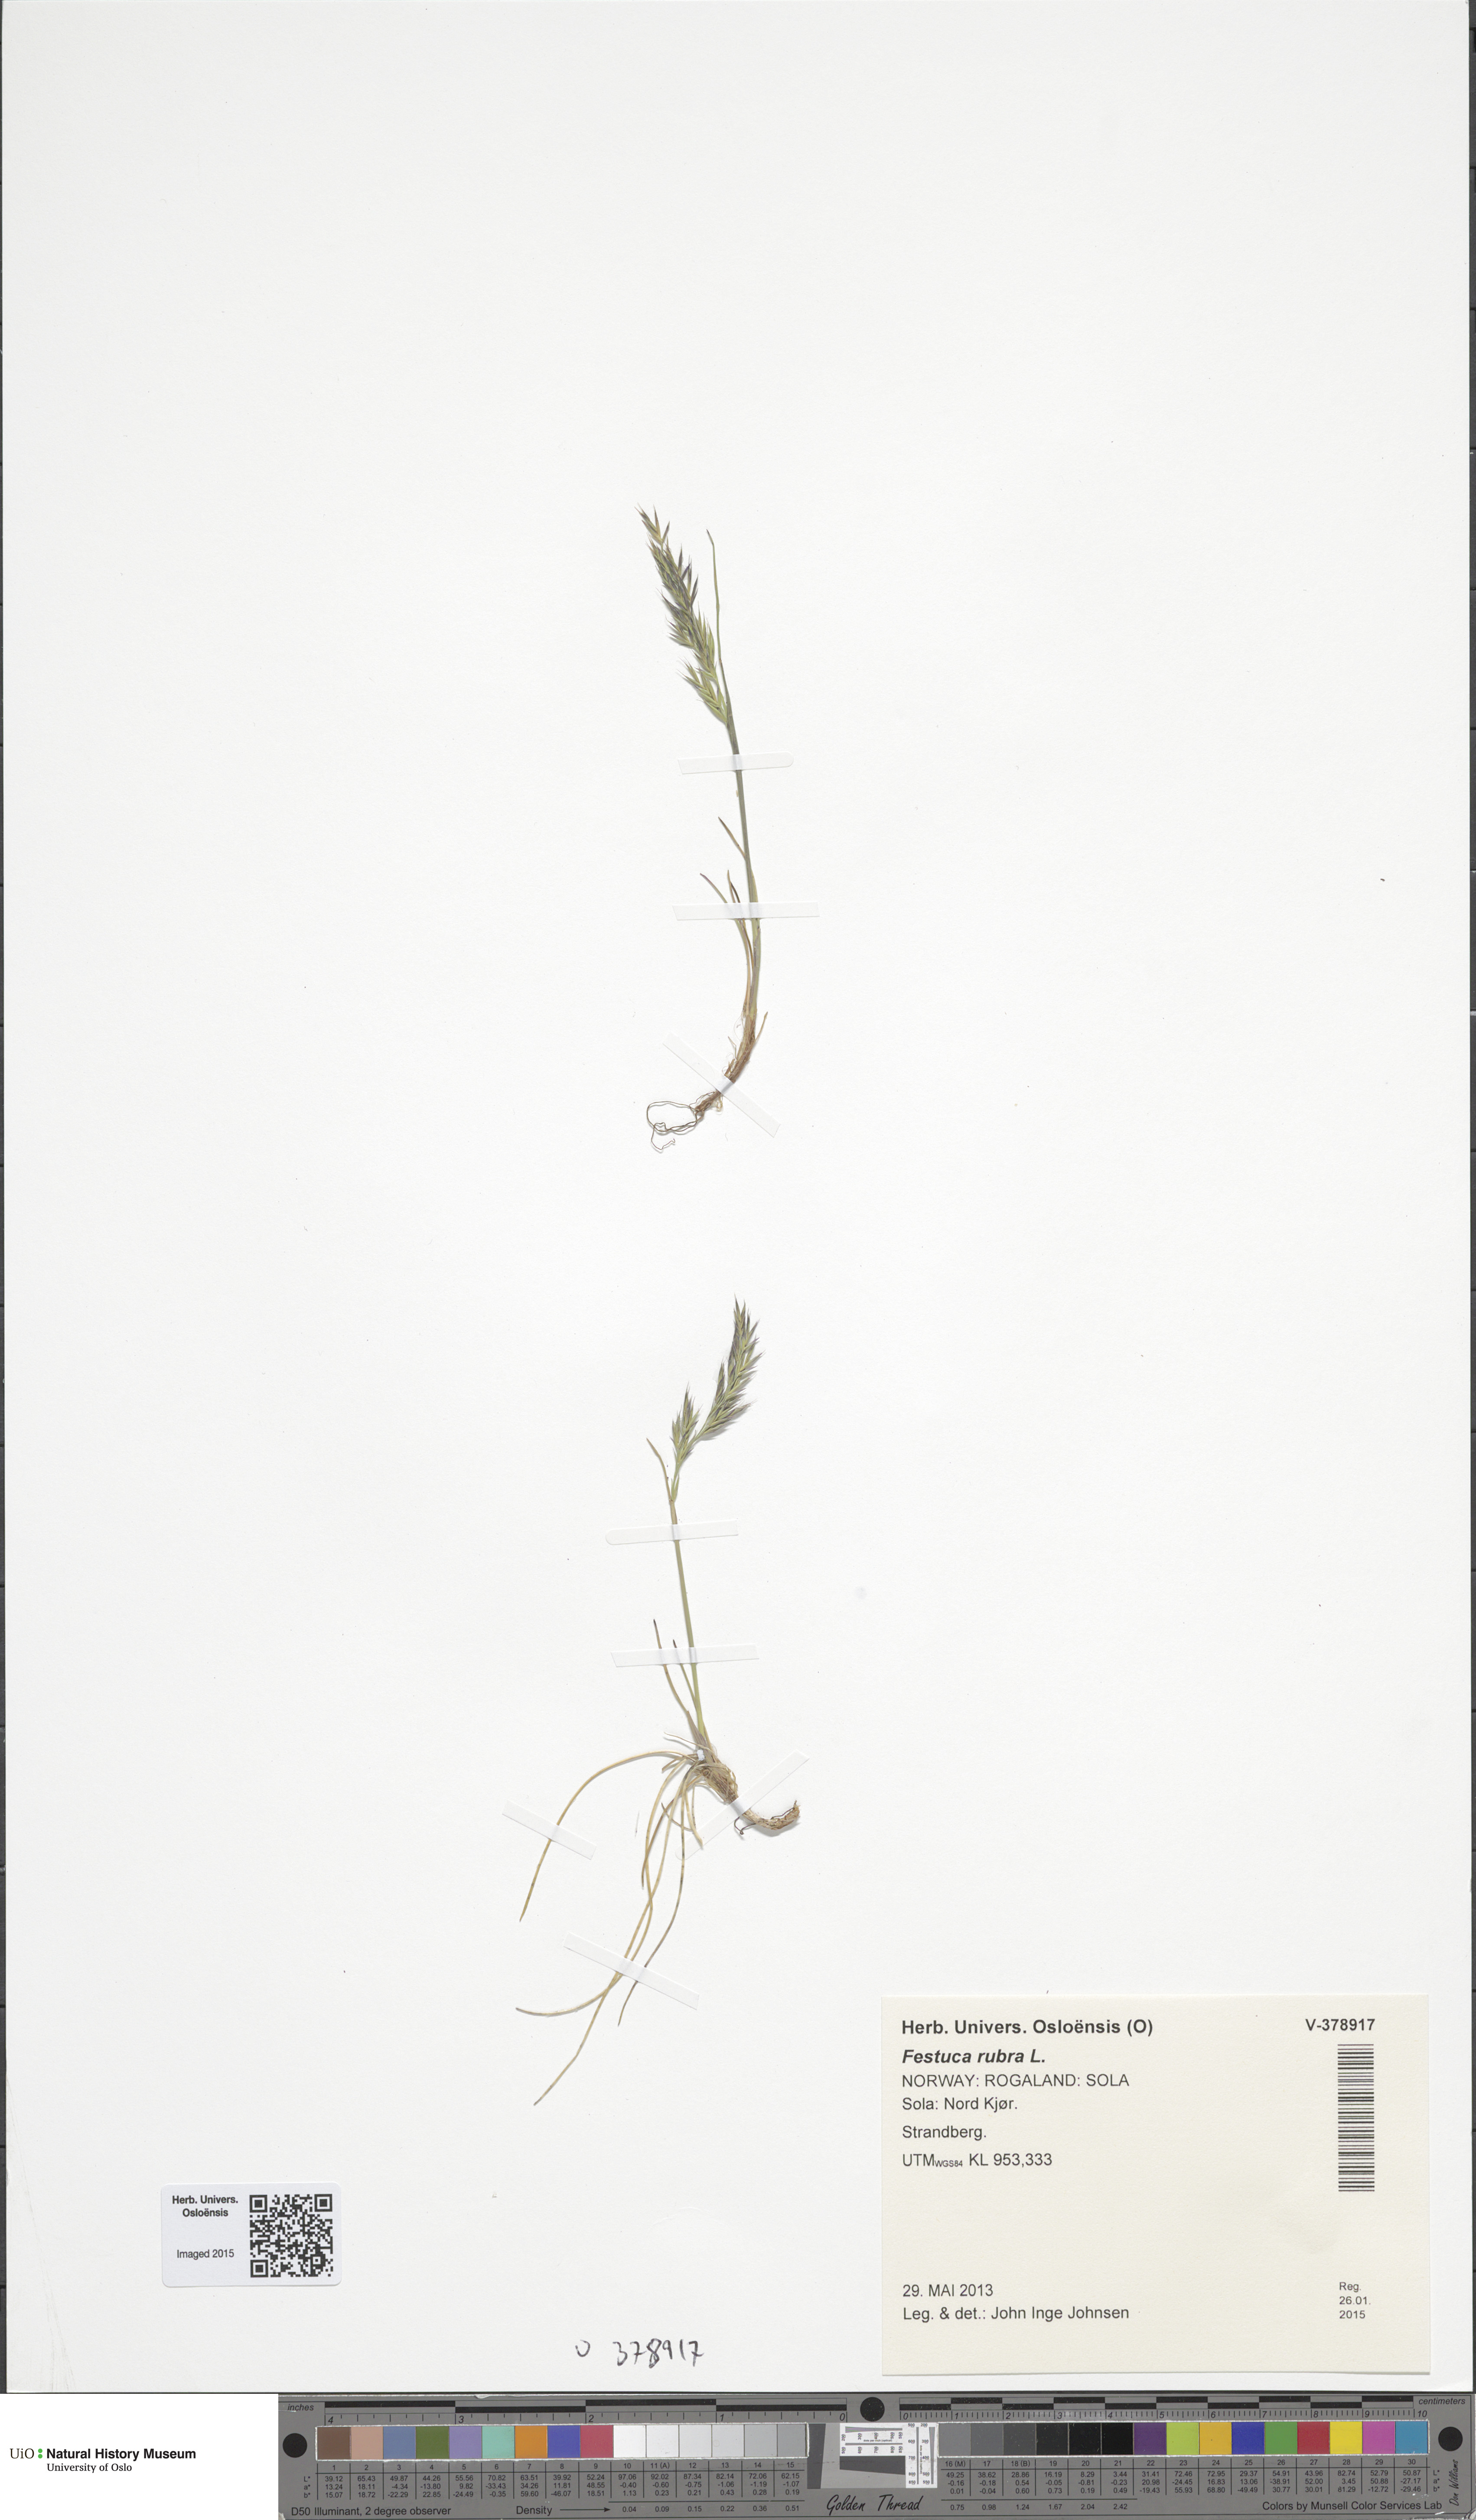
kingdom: Plantae
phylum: Tracheophyta
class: Liliopsida
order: Poales
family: Poaceae
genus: Festuca
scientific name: Festuca rubra
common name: Red fescue
